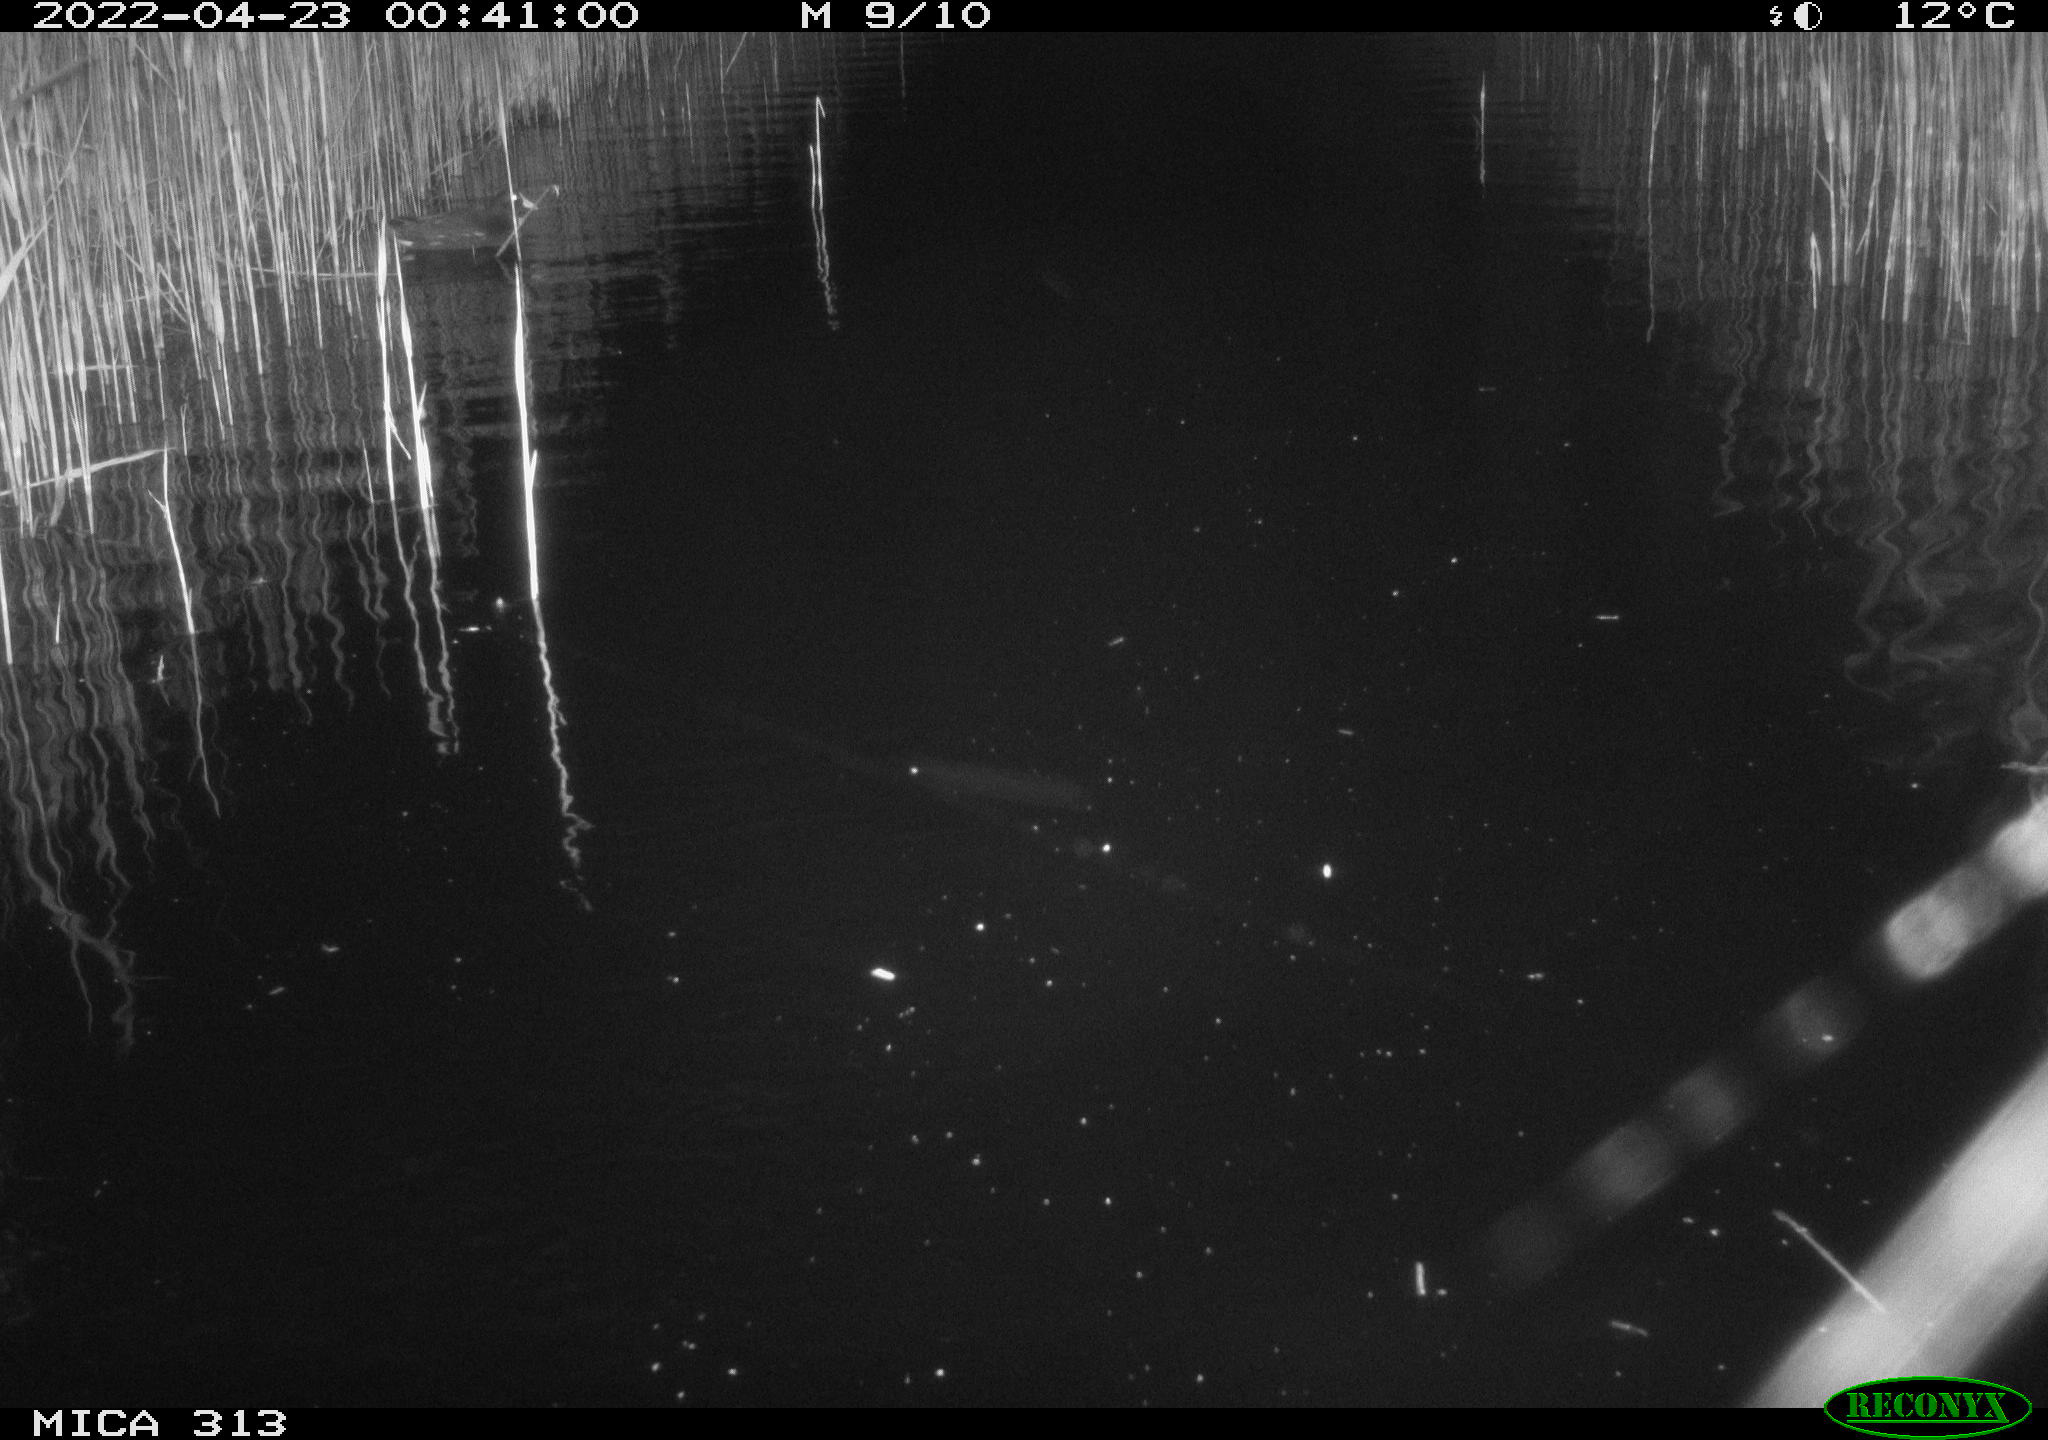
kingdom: Animalia
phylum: Chordata
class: Aves
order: Anseriformes
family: Anatidae
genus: Anas
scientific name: Anas platyrhynchos
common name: Mallard
